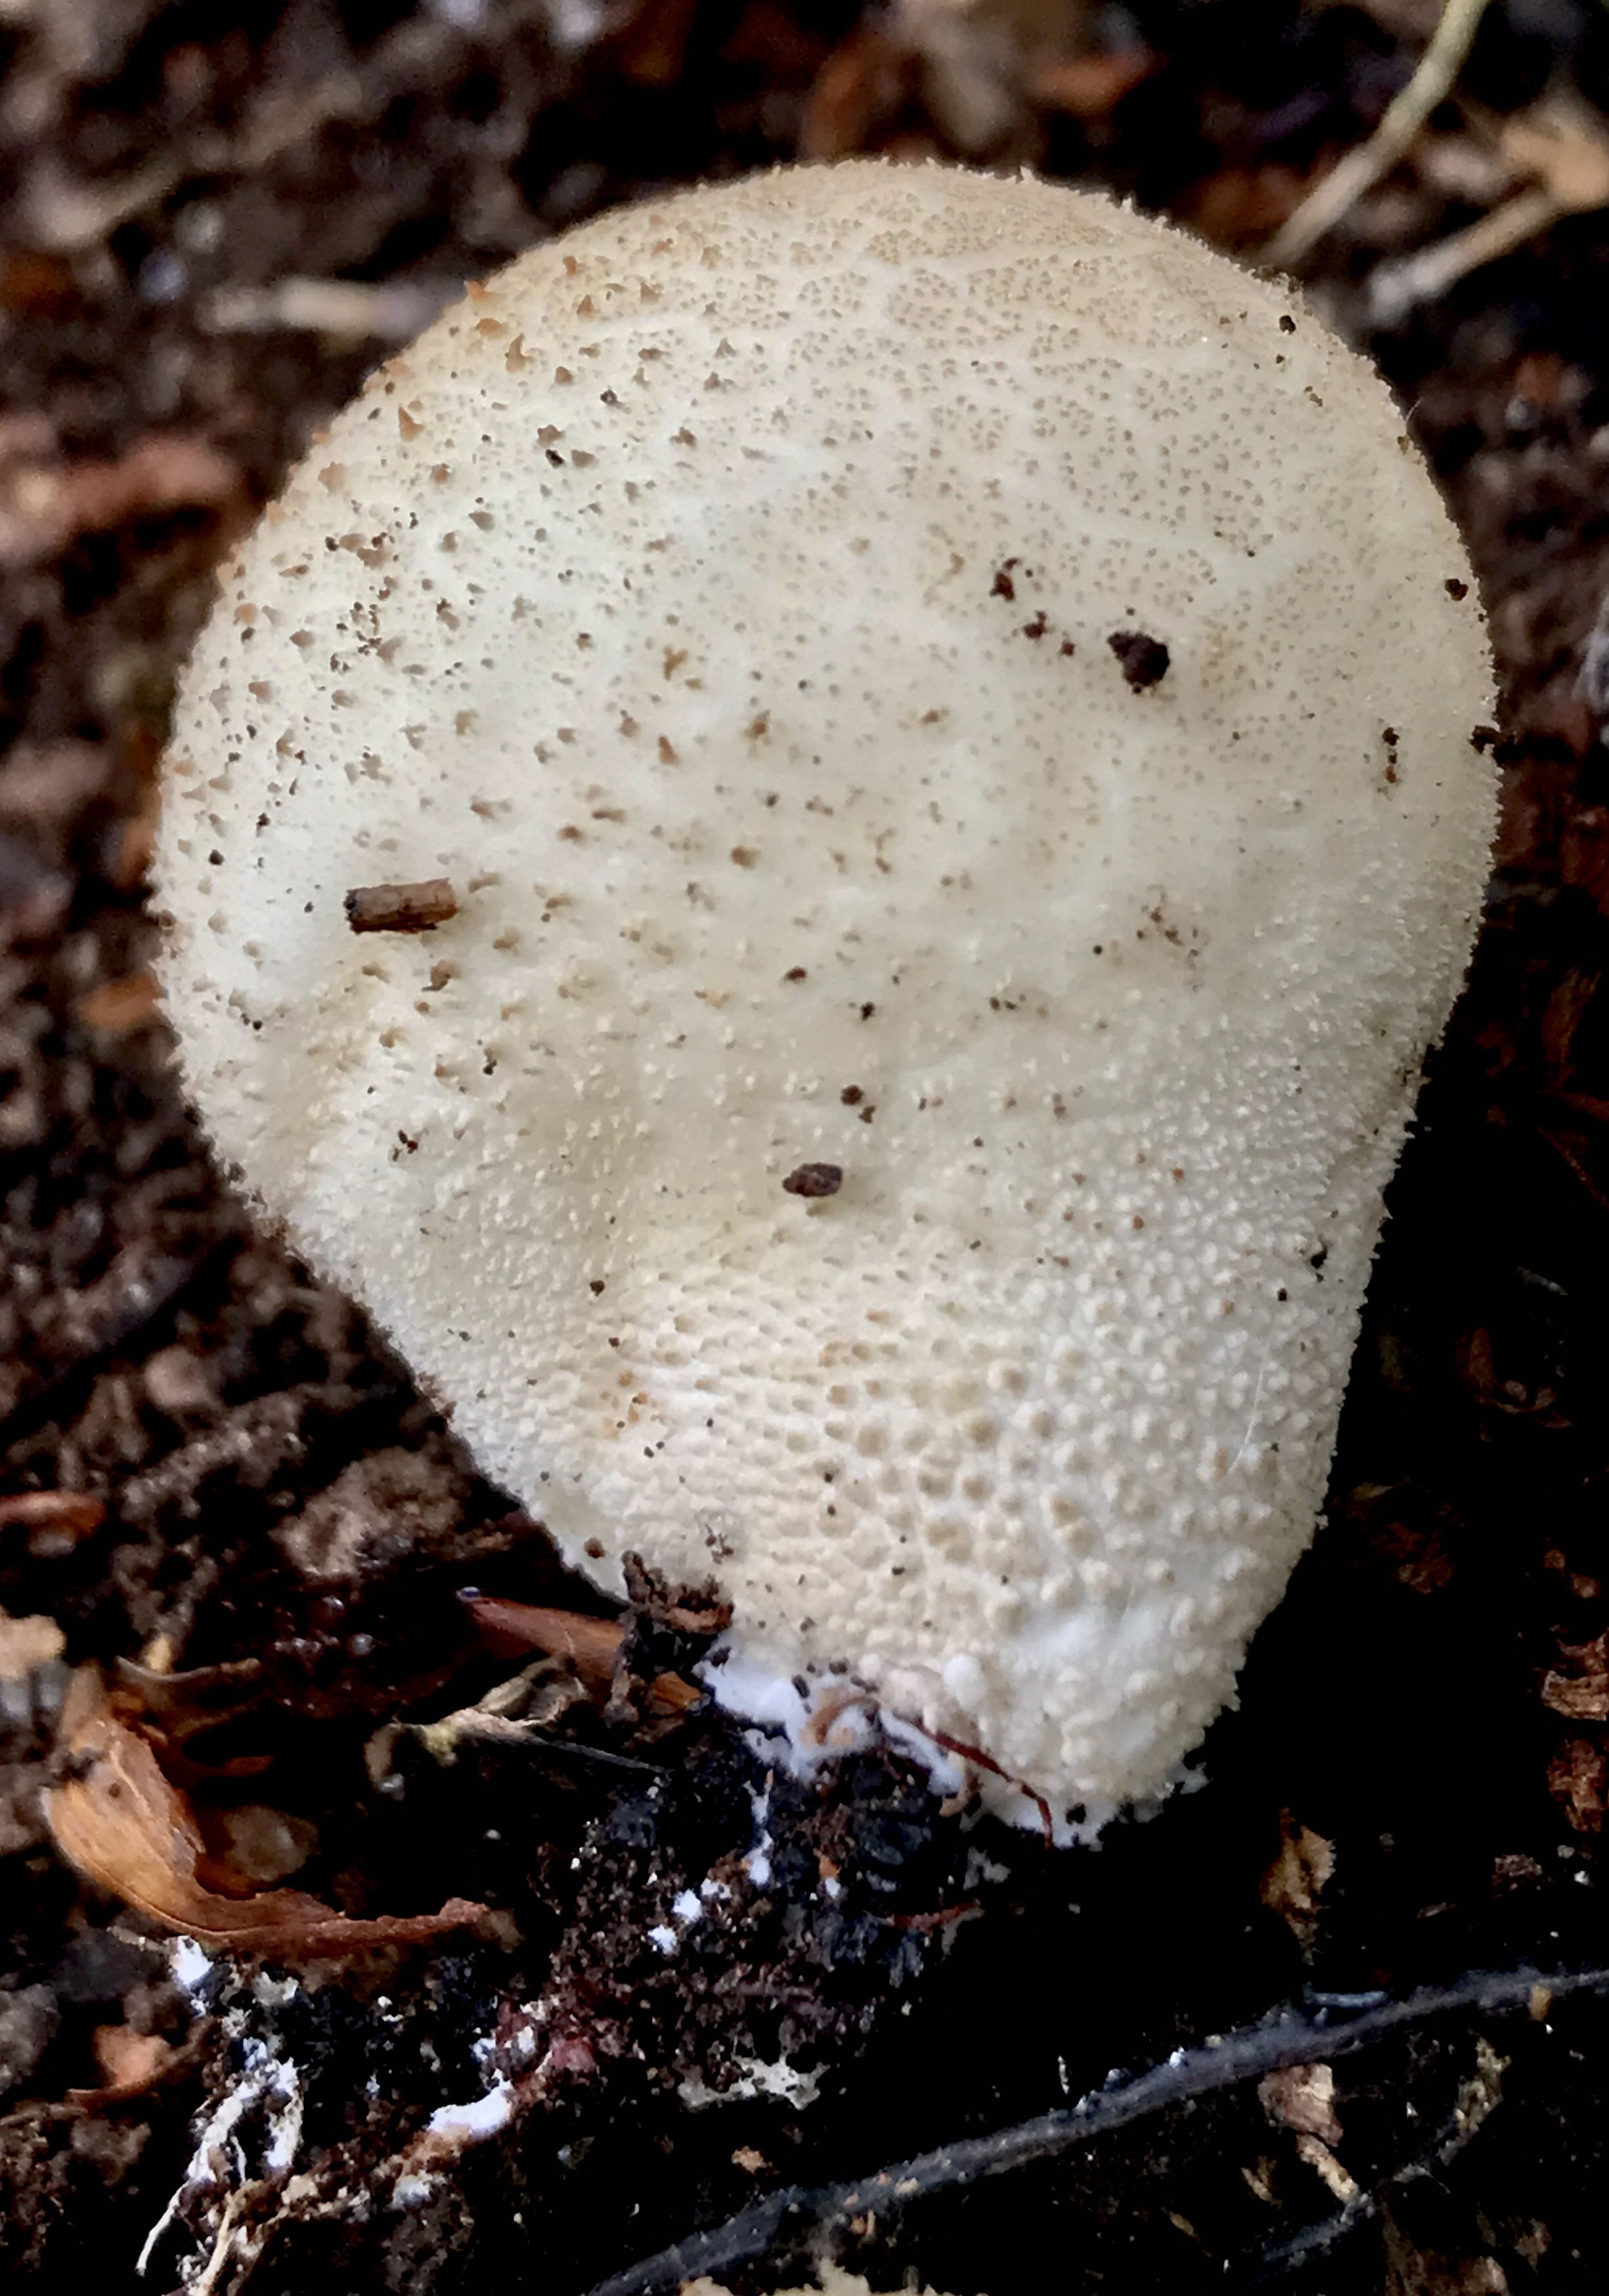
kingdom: Fungi
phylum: Basidiomycota
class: Agaricomycetes
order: Agaricales
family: Lycoperdaceae
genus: Apioperdon
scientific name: Apioperdon pyriforme
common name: pære-støvbold
